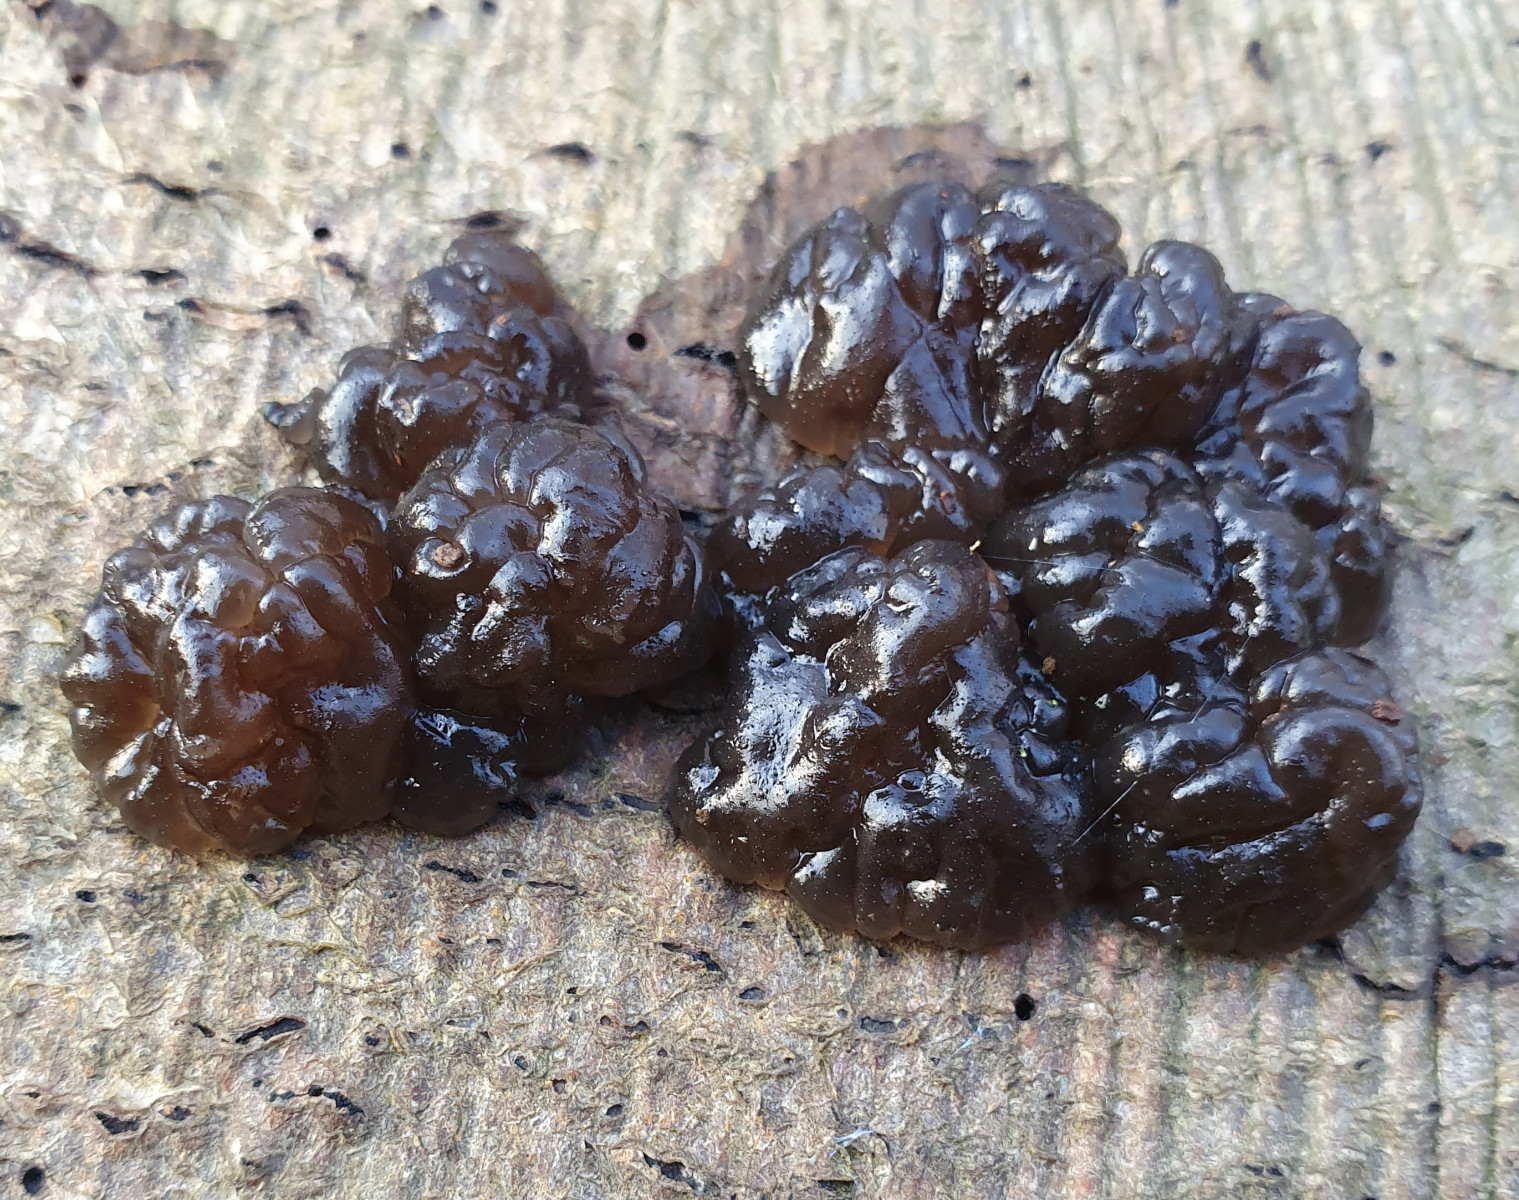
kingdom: Fungi
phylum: Basidiomycota
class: Agaricomycetes
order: Auriculariales
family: Auriculariaceae
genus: Exidia
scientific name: Exidia nigricans
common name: almindelig bævretop
